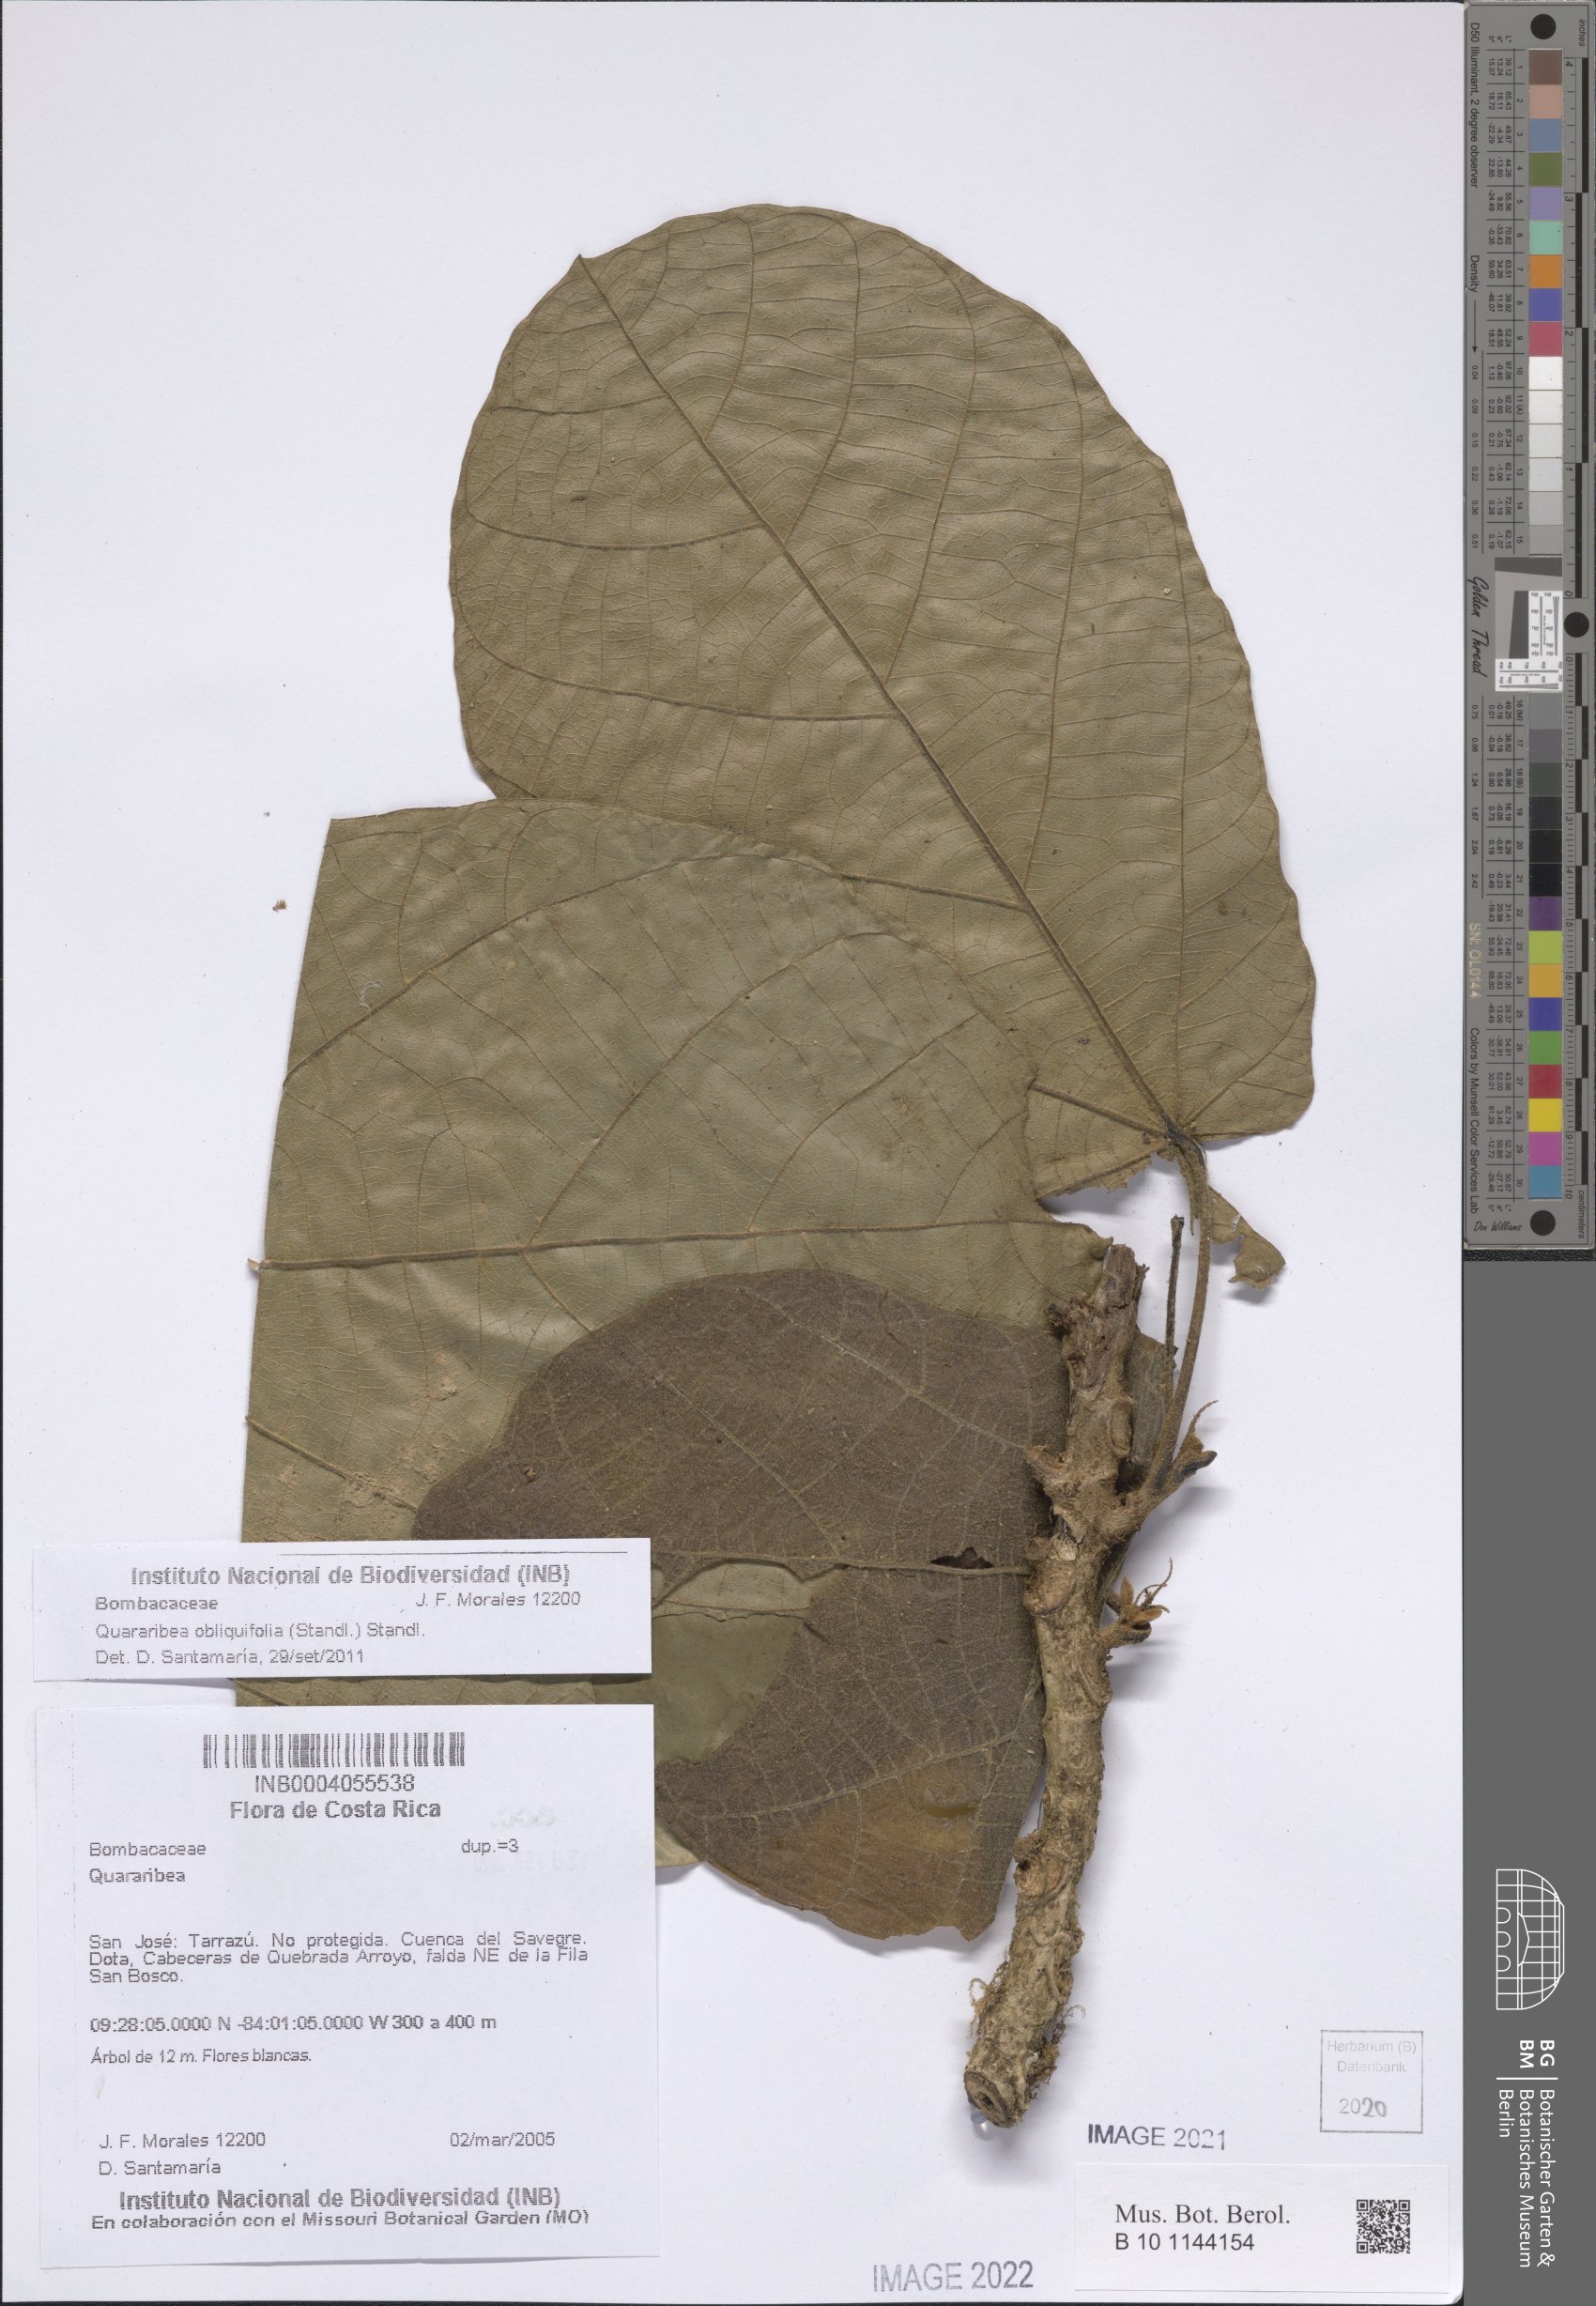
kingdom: Plantae
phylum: Tracheophyta
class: Magnoliopsida
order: Malvales
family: Malvaceae
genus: Matisia
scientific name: Matisia obliquifolia
